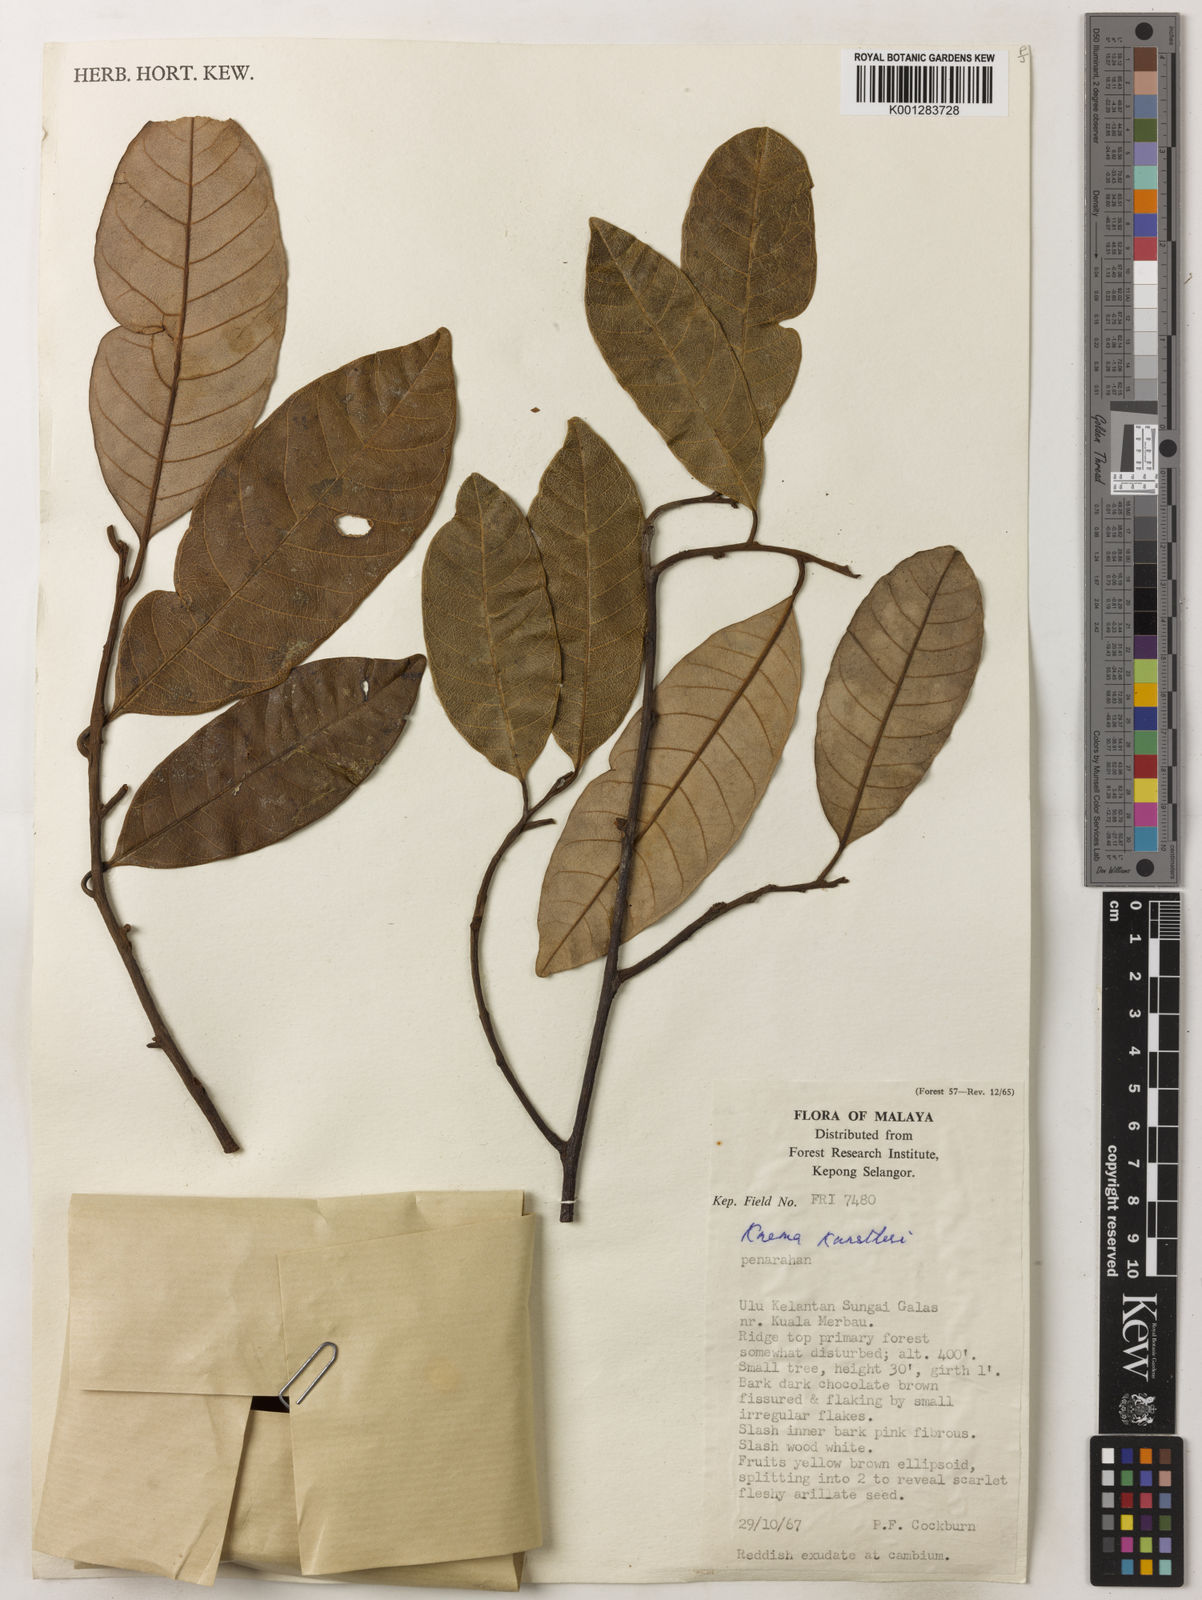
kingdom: Plantae
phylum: Tracheophyta
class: Magnoliopsida
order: Magnoliales
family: Myristicaceae
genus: Knema
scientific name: Knema kunstleri
